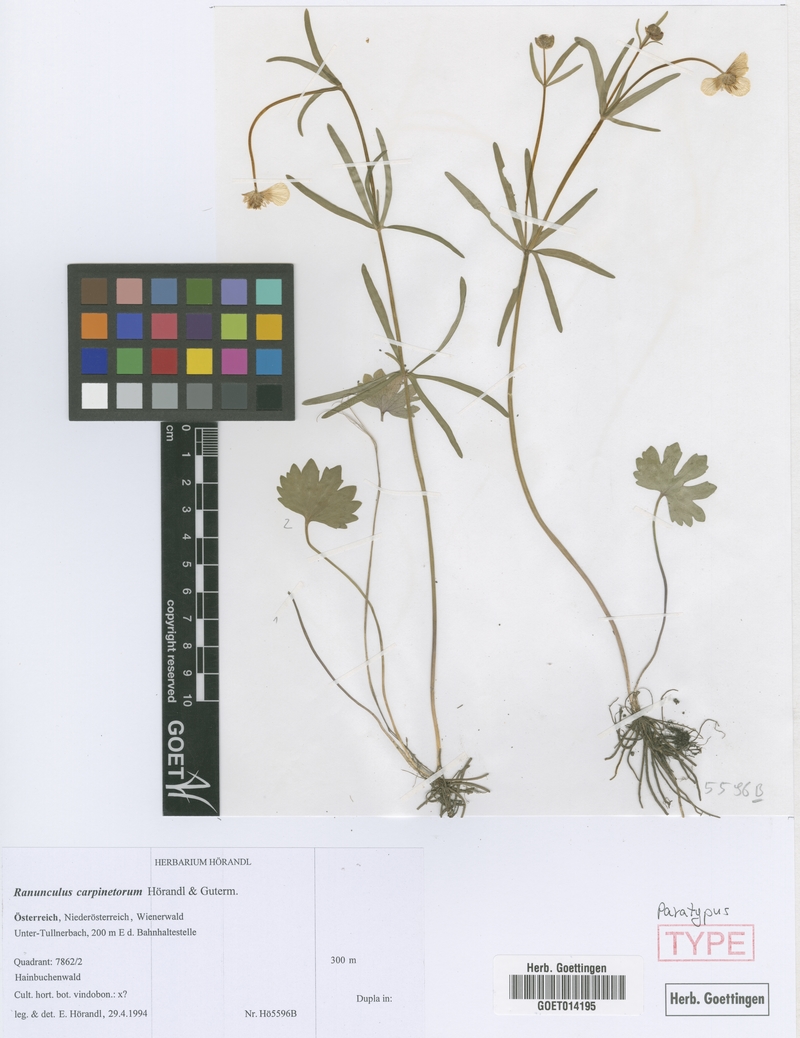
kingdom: Plantae
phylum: Tracheophyta
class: Magnoliopsida
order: Ranunculales
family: Ranunculaceae
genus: Ranunculus
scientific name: Ranunculus carpinetorum
